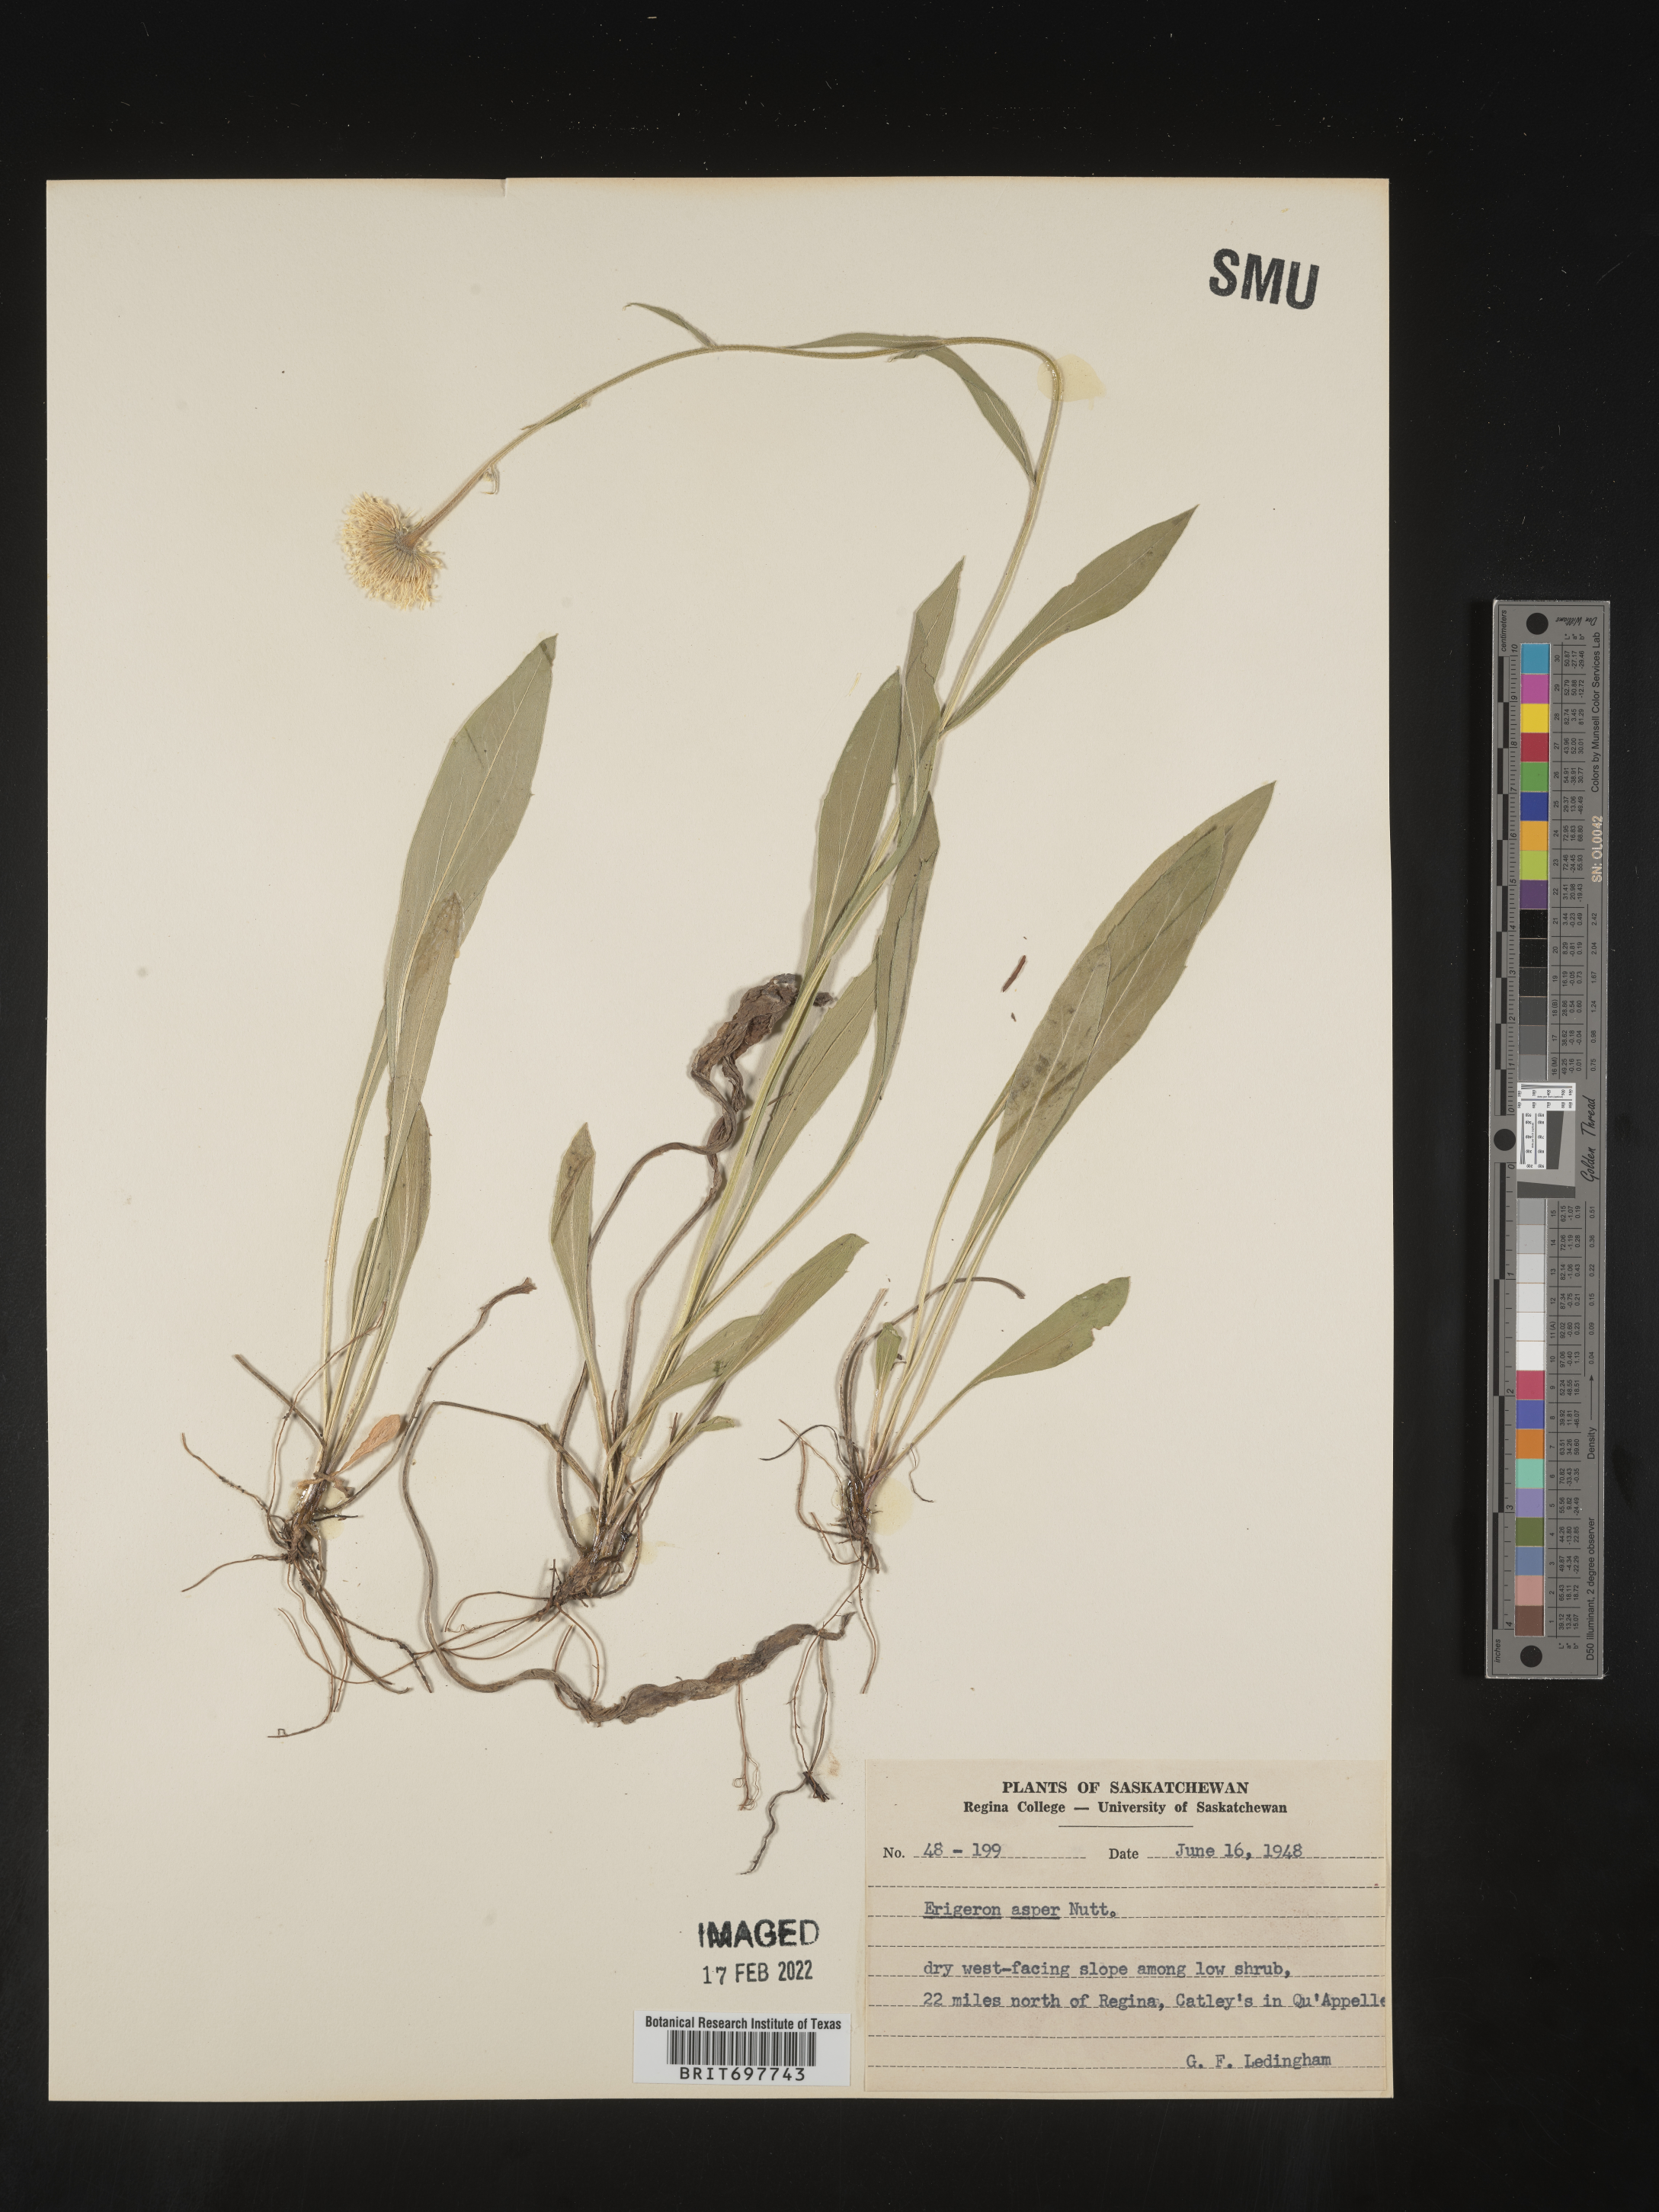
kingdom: Plantae
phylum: Tracheophyta
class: Magnoliopsida
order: Asterales
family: Asteraceae
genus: Erigeron
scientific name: Erigeron glabellus
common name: Smooth fleabane
